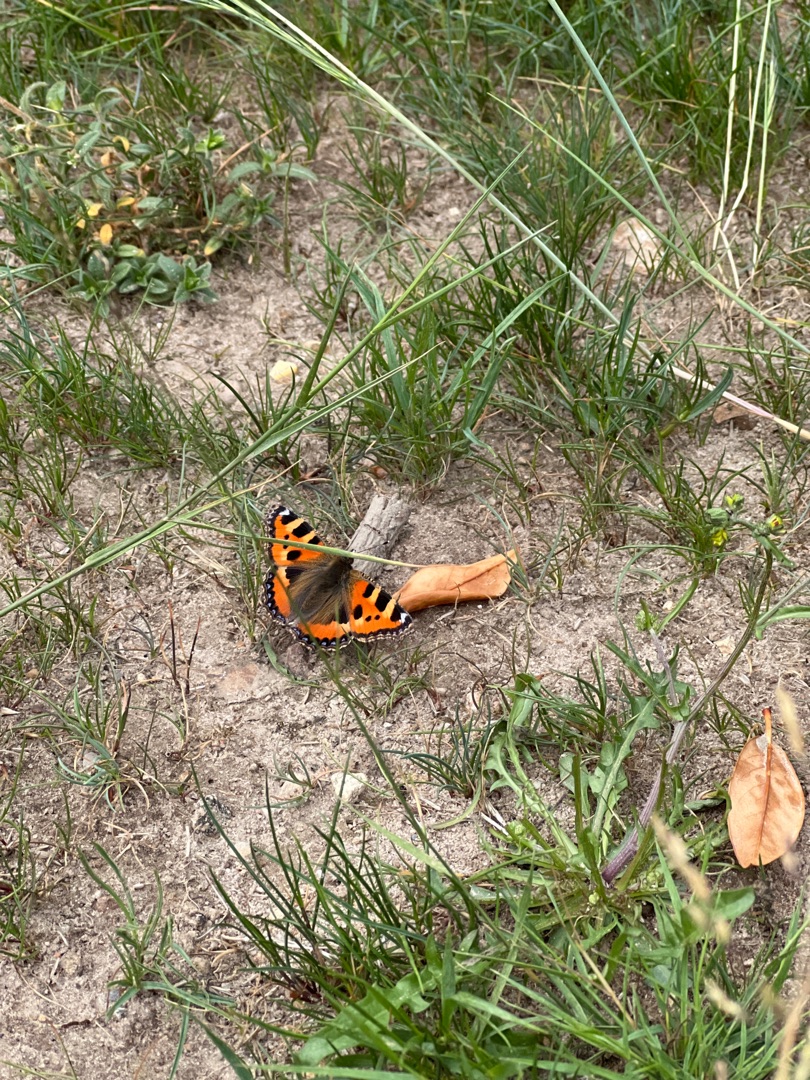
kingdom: Animalia
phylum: Arthropoda
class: Insecta
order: Lepidoptera
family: Nymphalidae
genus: Aglais
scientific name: Aglais urticae
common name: Nældens takvinge
